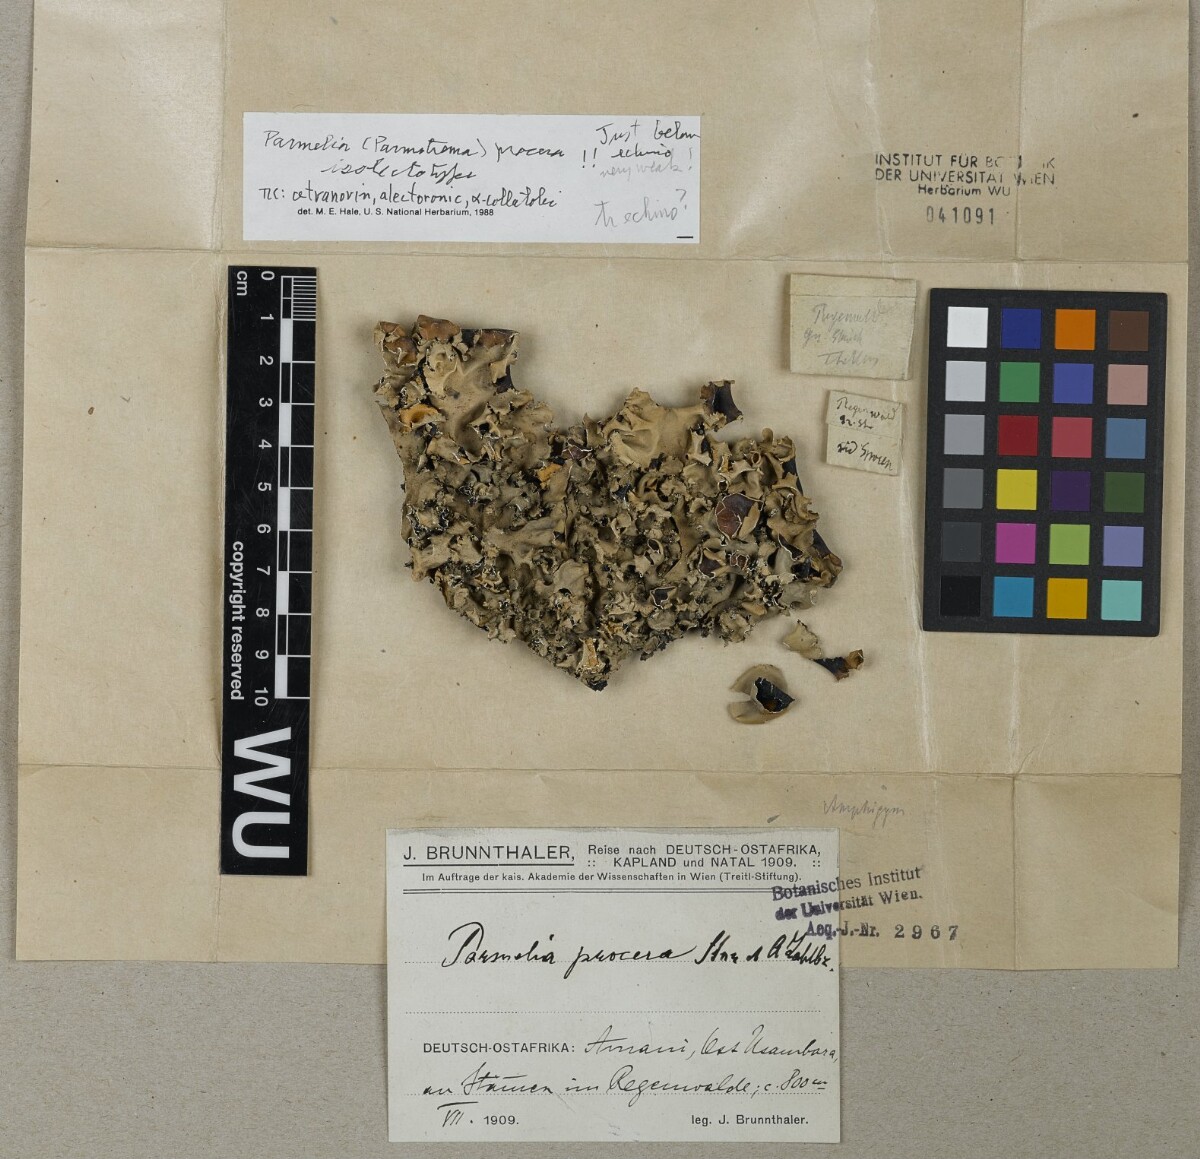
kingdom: Fungi
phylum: Ascomycota
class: Lecanoromycetes
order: Lecanorales
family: Parmeliaceae
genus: Parmotrema
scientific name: Parmotrema procerum
